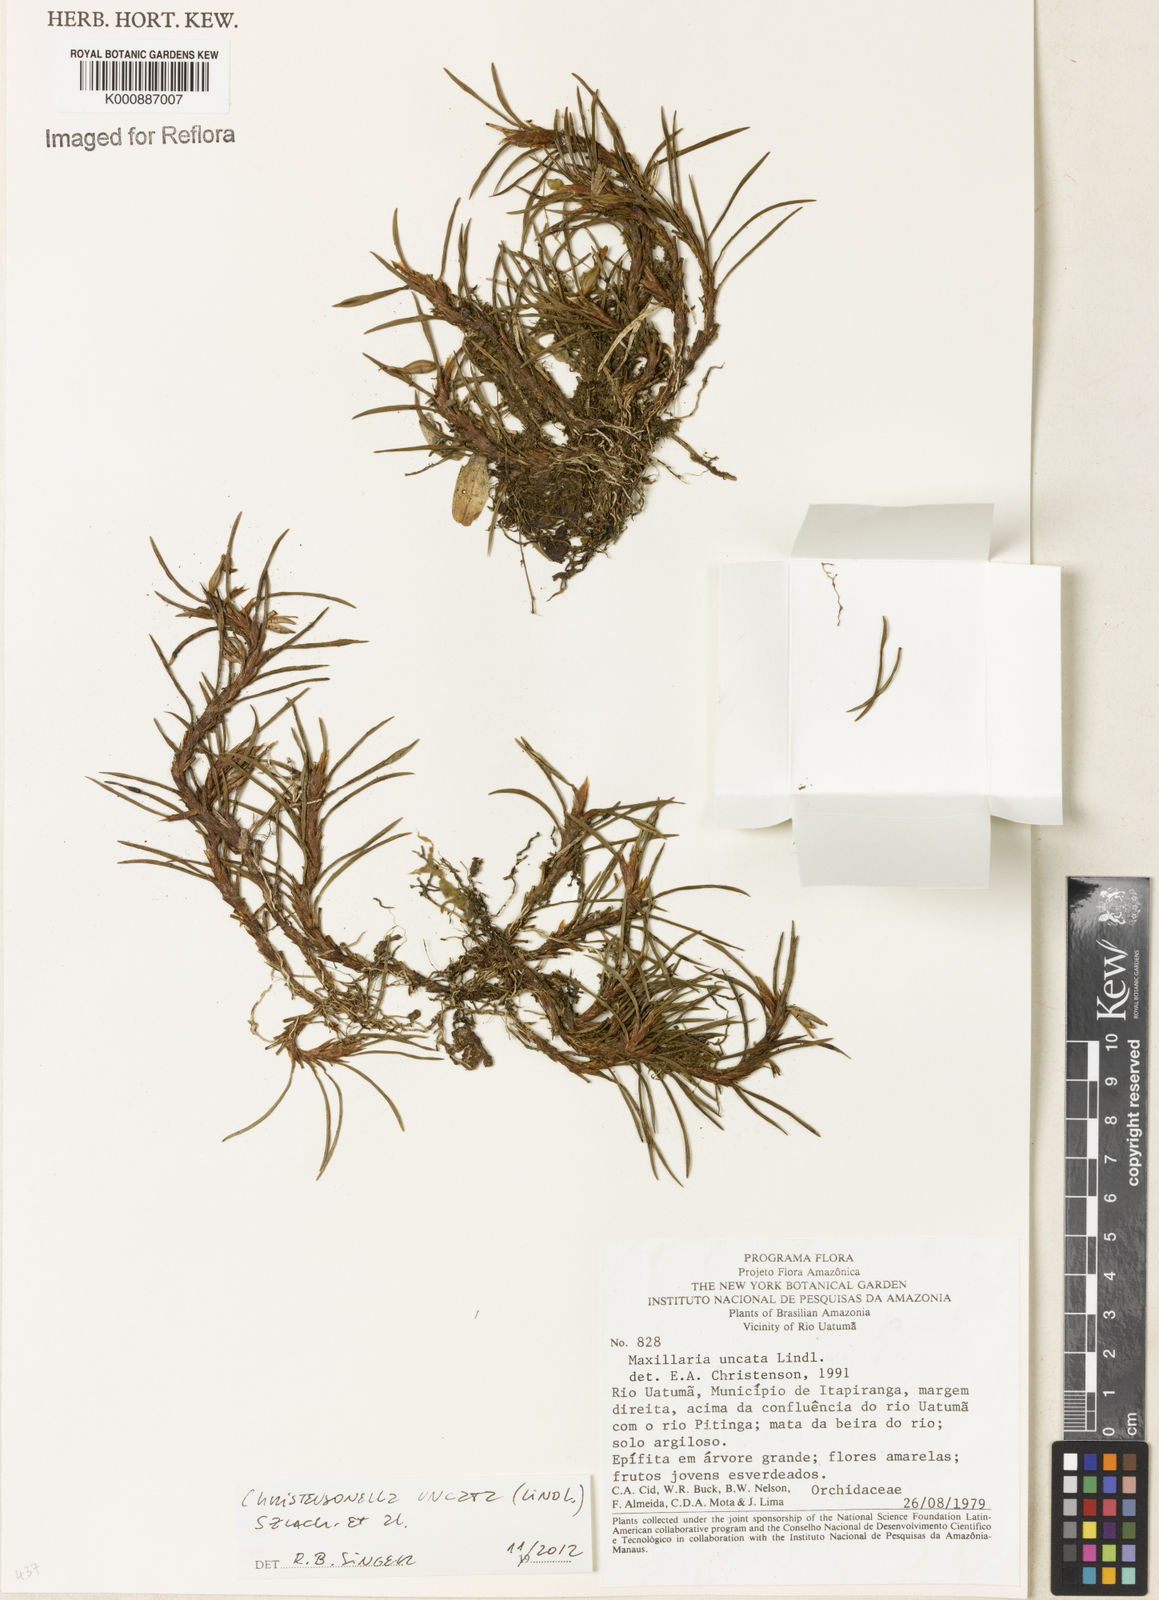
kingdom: Plantae
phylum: Tracheophyta
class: Liliopsida
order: Asparagales
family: Orchidaceae
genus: Maxillaria
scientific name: Maxillaria uncata
